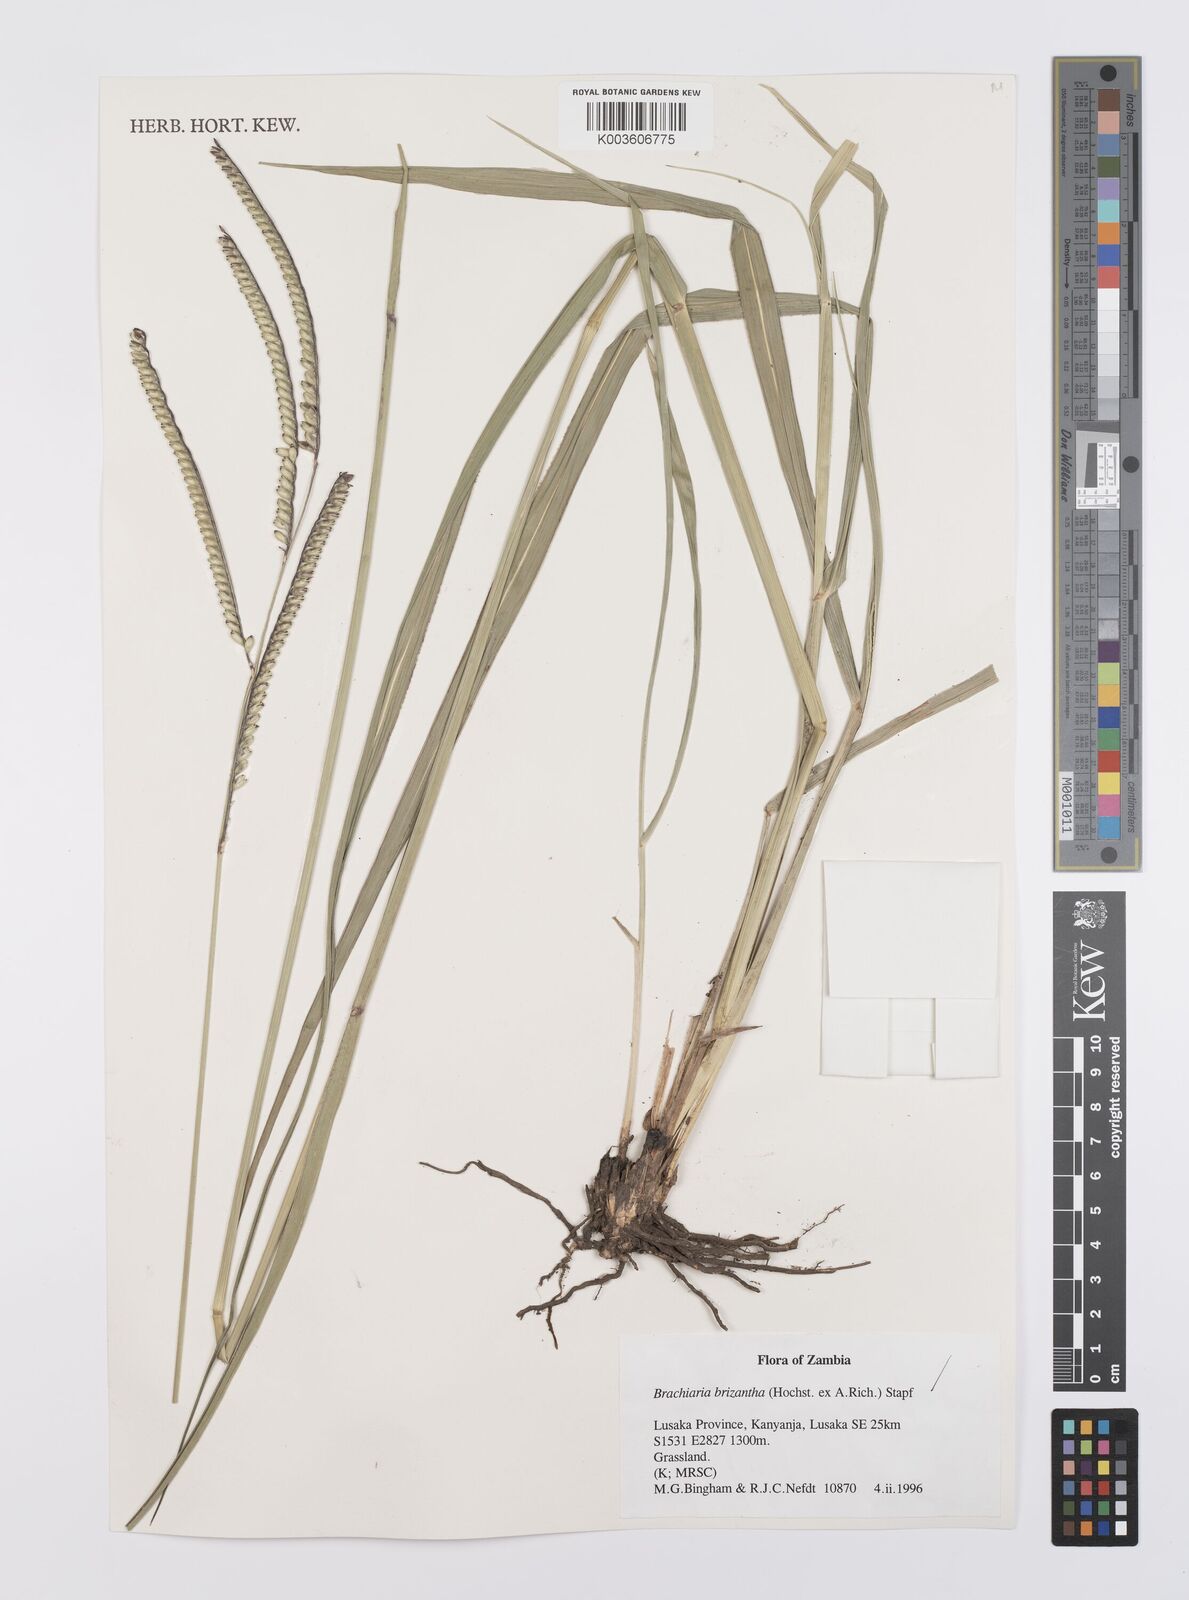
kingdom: Plantae
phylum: Tracheophyta
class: Liliopsida
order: Poales
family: Poaceae
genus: Urochloa
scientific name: Urochloa brizantha
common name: Palisade signalgrass
